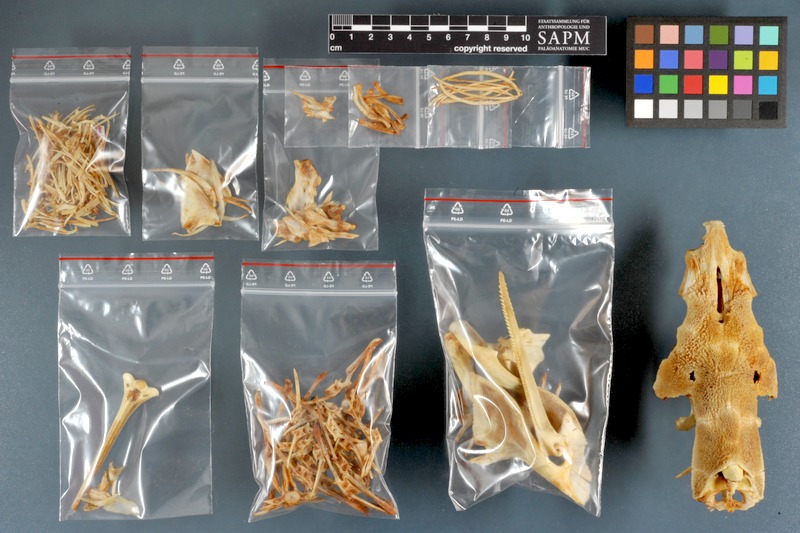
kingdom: Animalia
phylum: Chordata
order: Siluriformes
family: Mochokidae
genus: Synodontis
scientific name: Synodontis serratus
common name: Shield-head catfish
